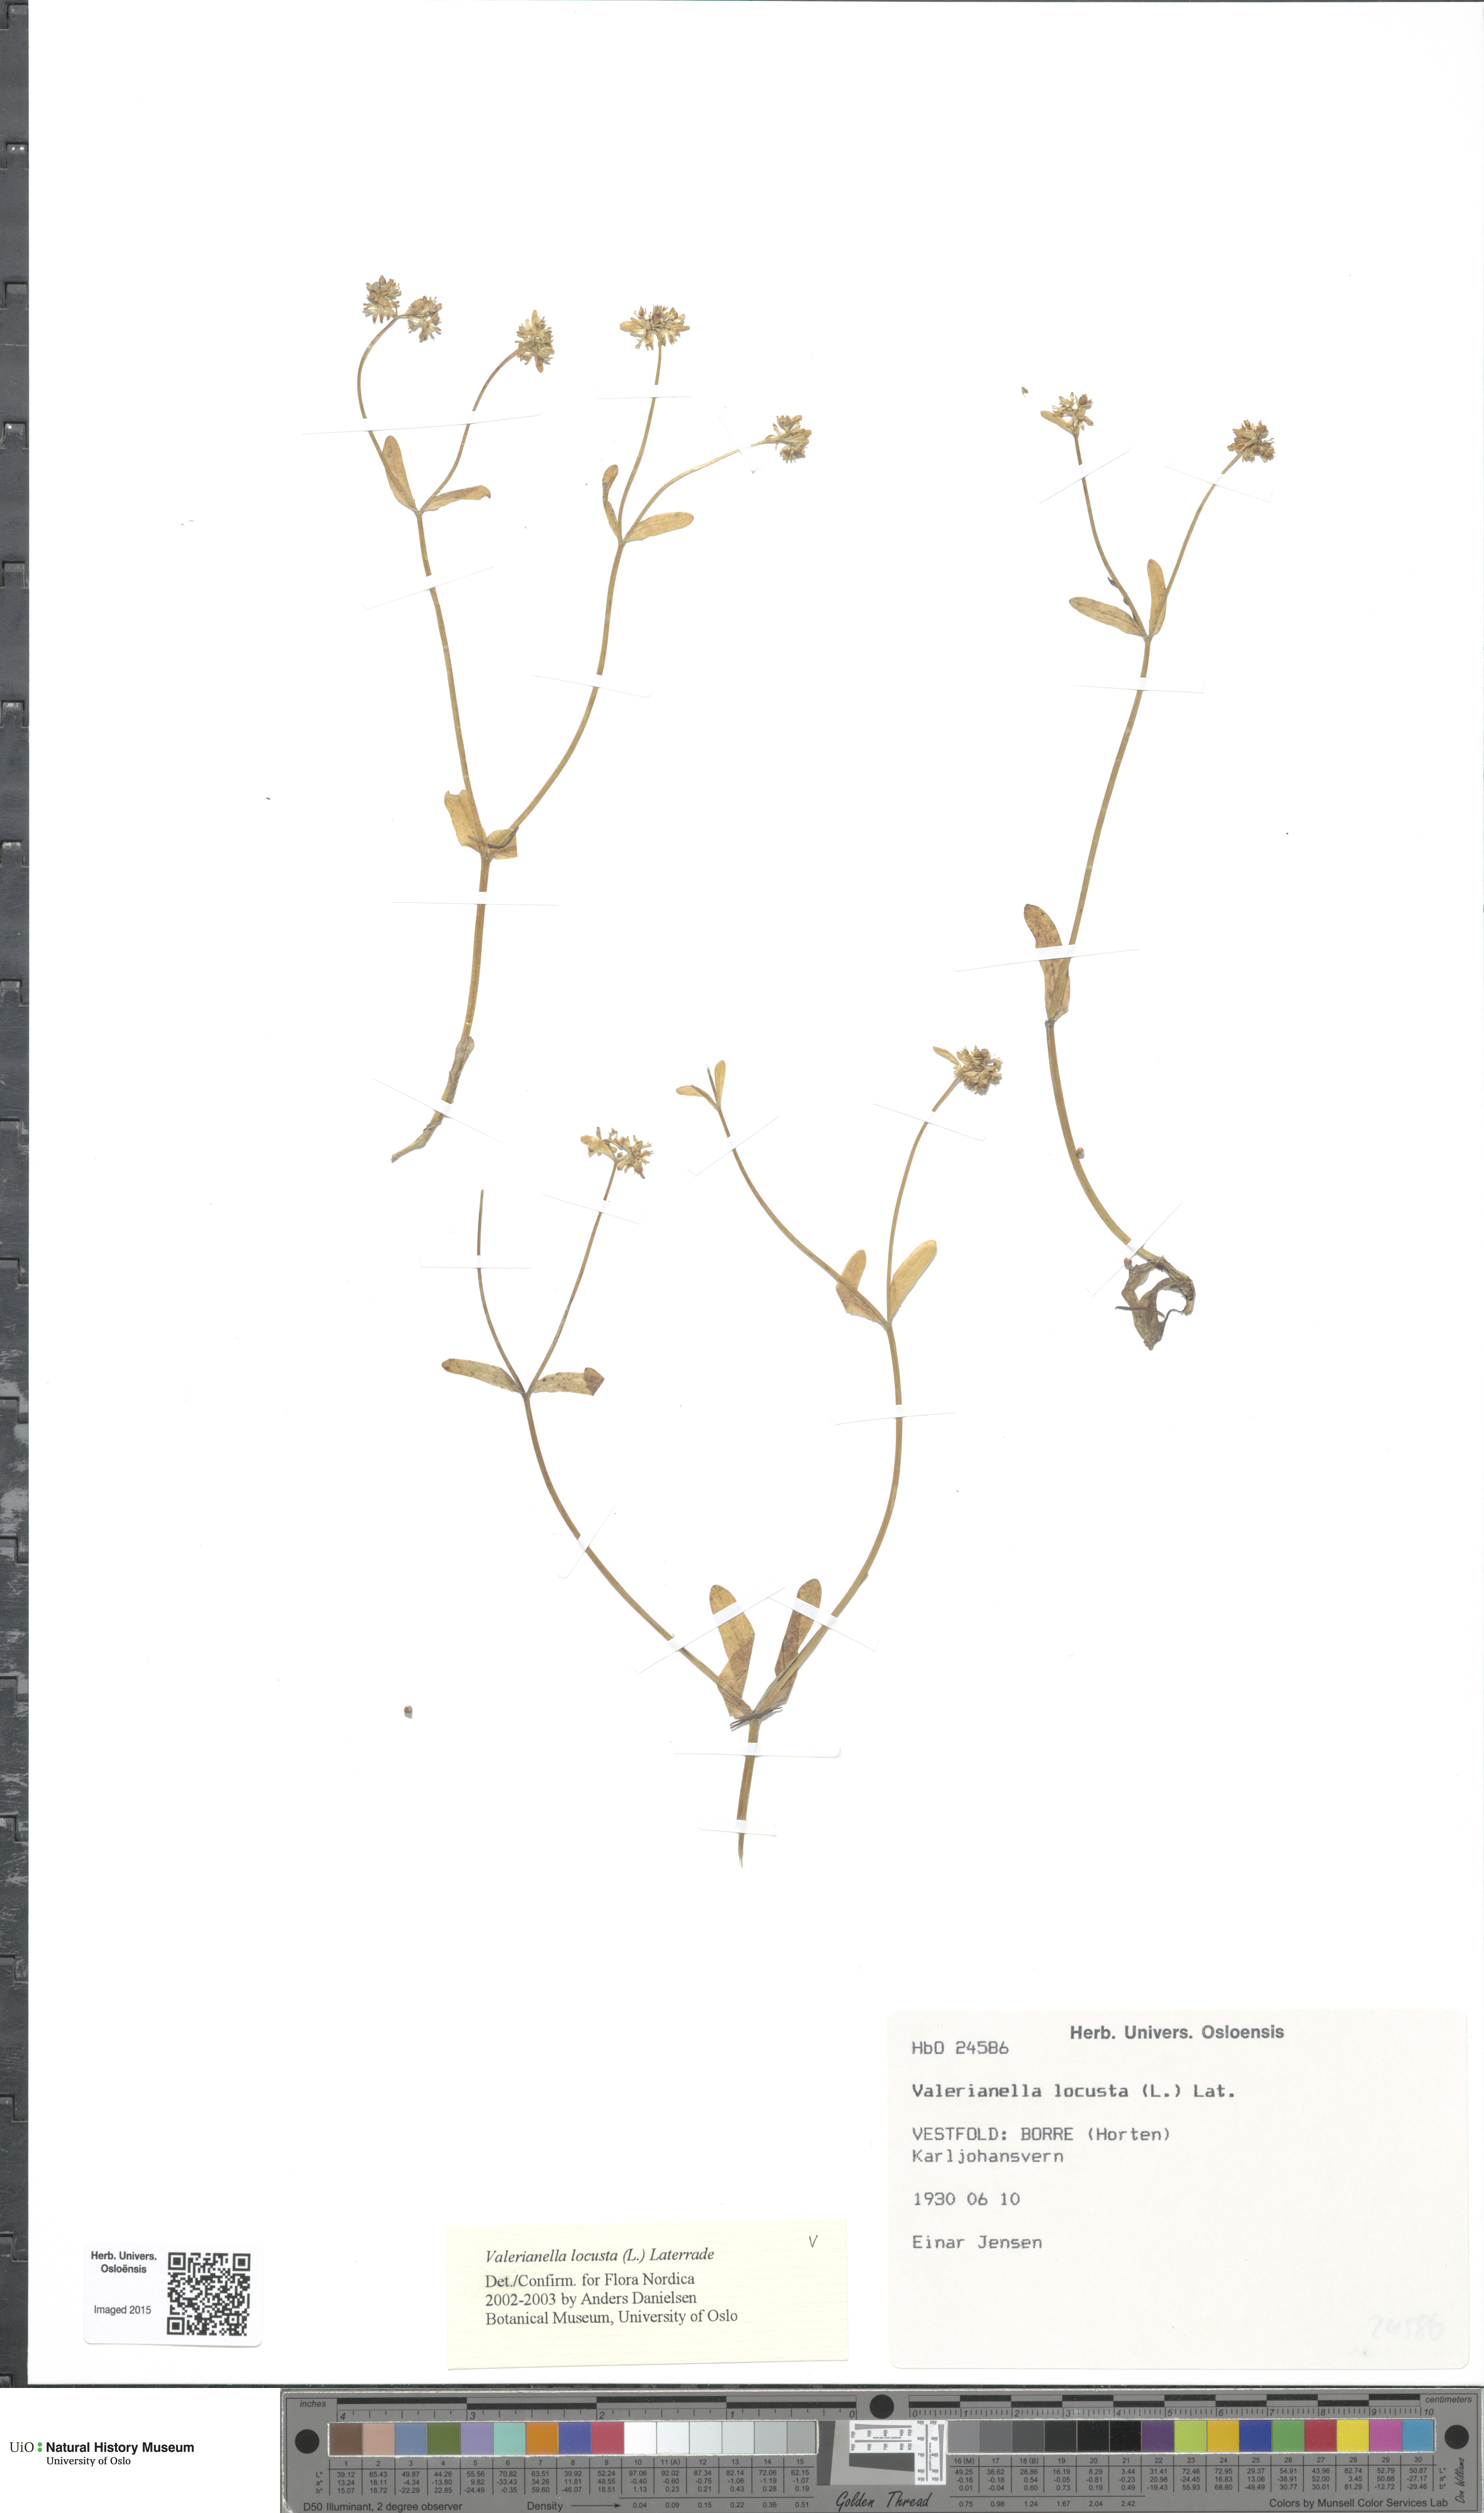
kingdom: Plantae
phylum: Tracheophyta
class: Magnoliopsida
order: Dipsacales
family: Caprifoliaceae
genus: Valerianella
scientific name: Valerianella locusta
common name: Common cornsalad
